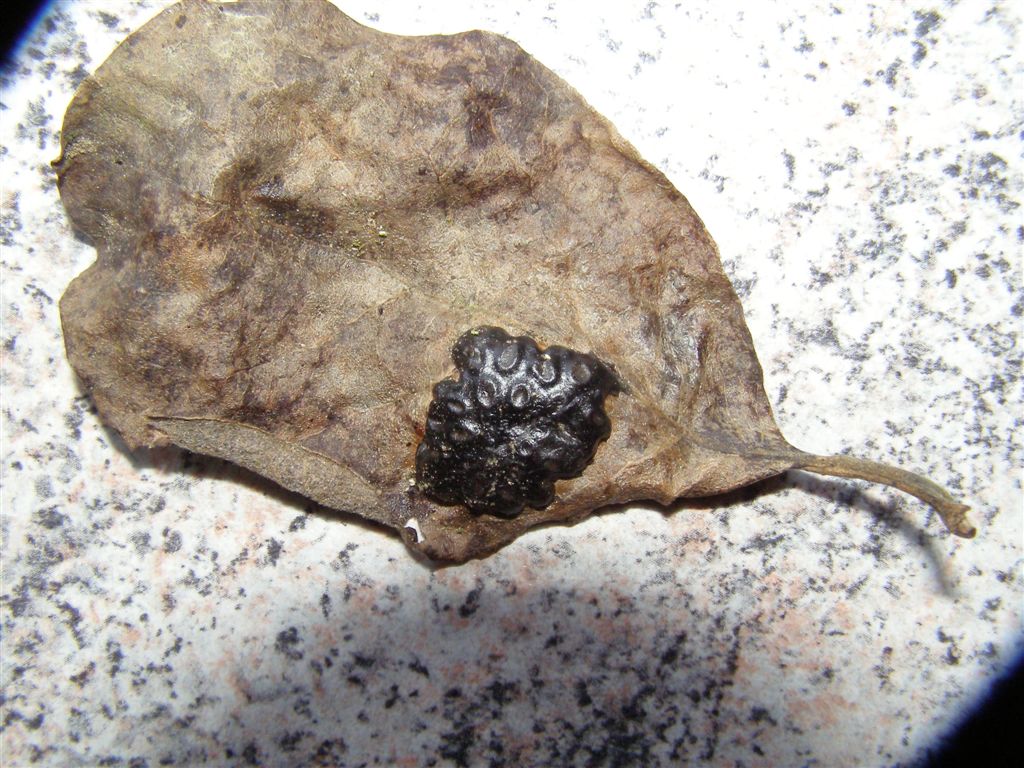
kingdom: Fungi
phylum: Ascomycota
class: Leotiomycetes
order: Rhytismatales
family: Rhytismataceae
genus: Rhytisma
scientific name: Rhytisma salicinum
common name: pile-rynkeplet
